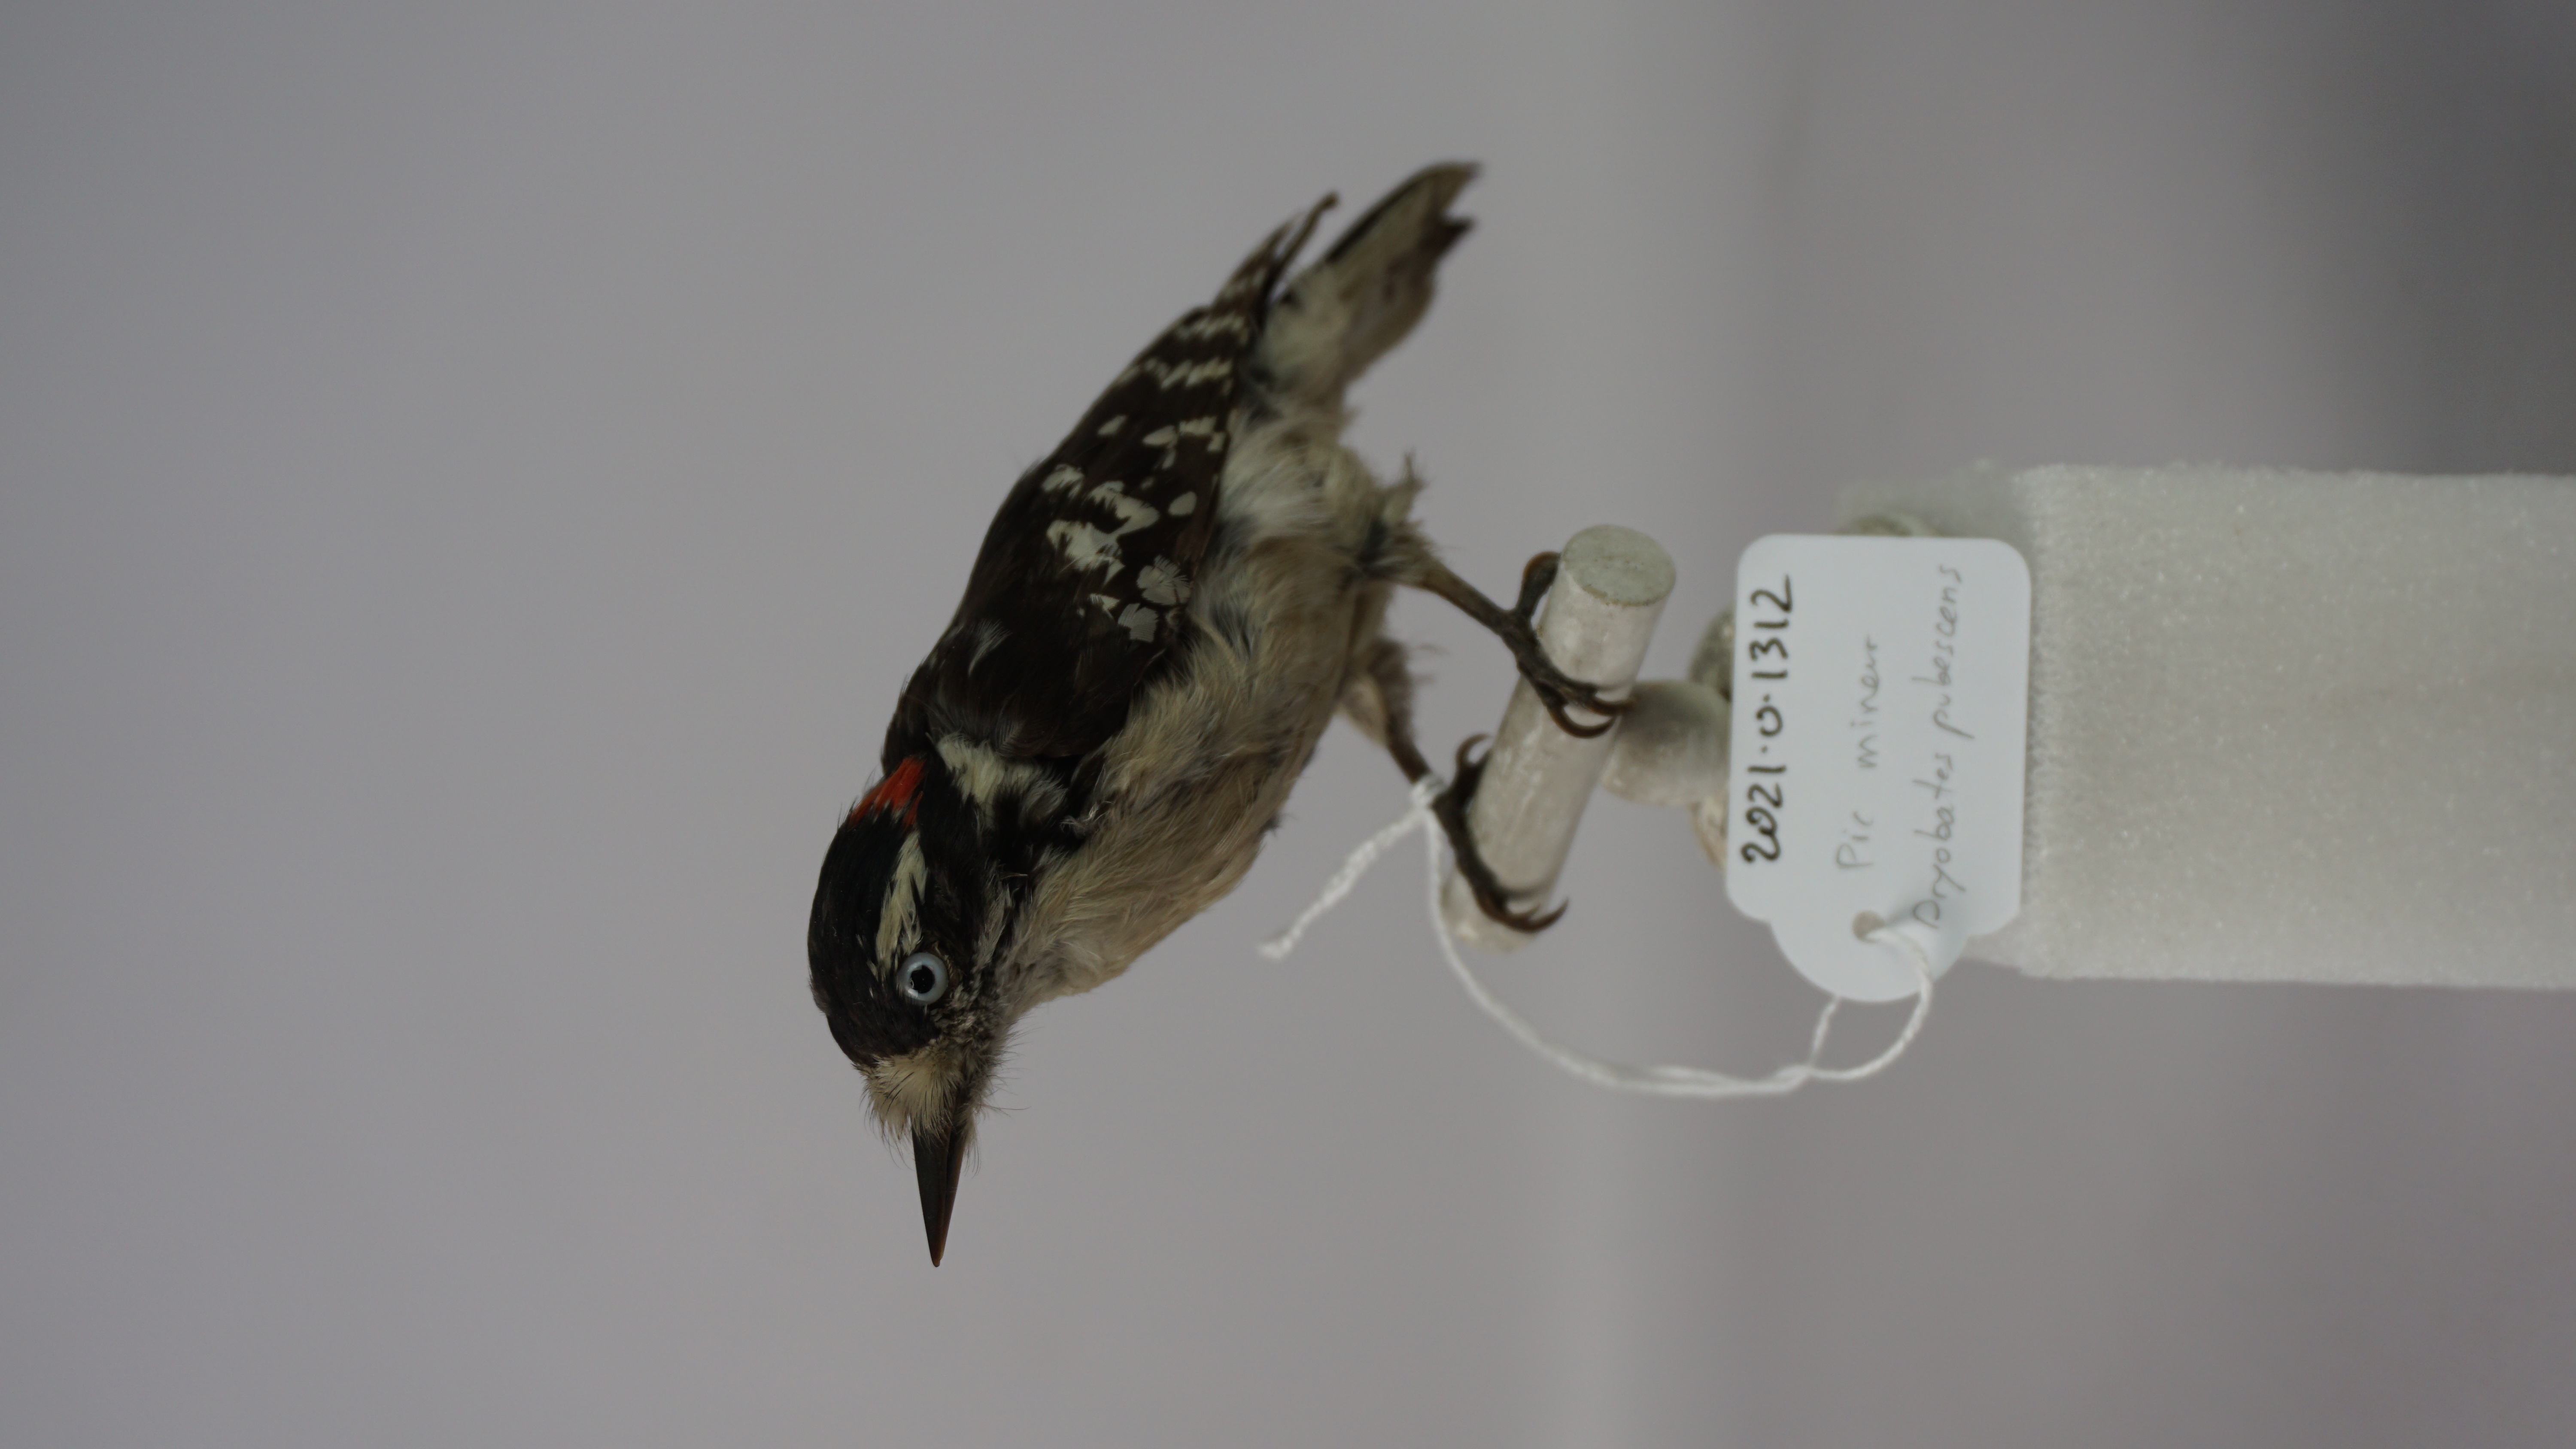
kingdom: Animalia
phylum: Chordata
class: Aves
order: Piciformes
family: Picidae
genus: Dryobates
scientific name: Dryobates pubescens
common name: Downy woodpecker
